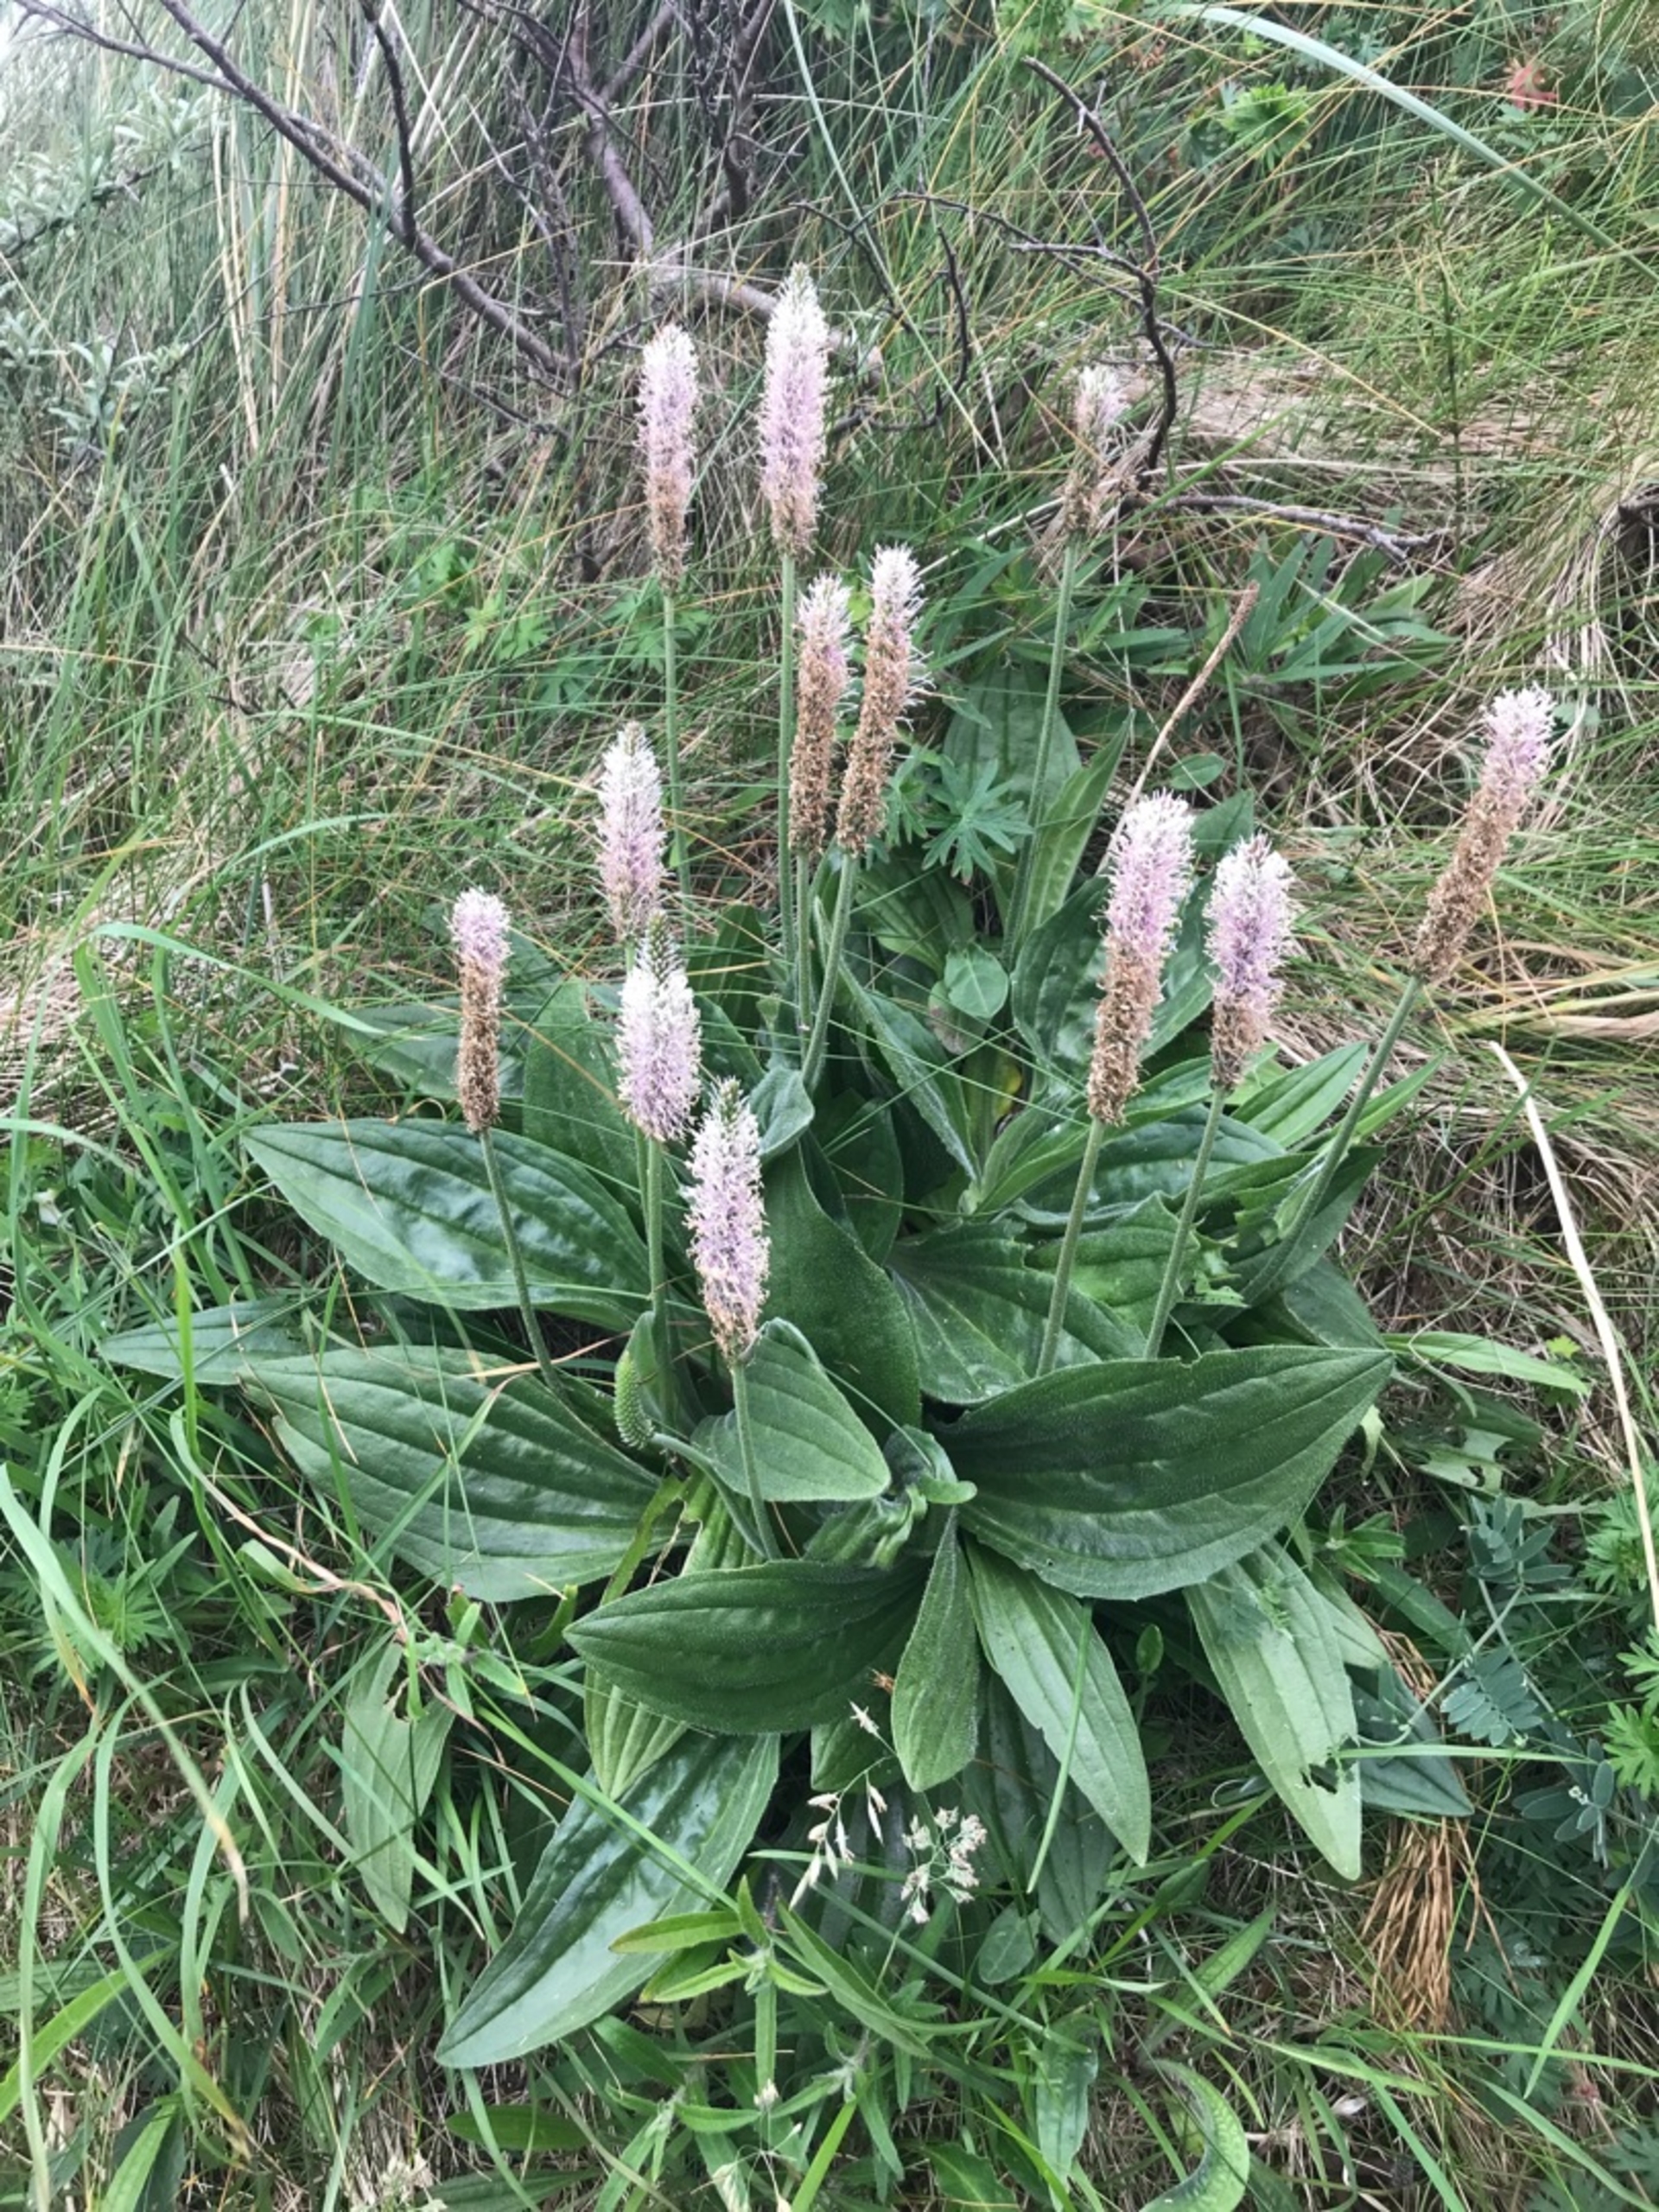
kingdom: Plantae
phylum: Tracheophyta
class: Magnoliopsida
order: Lamiales
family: Plantaginaceae
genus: Plantago
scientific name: Plantago media
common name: Dunet vejbred
